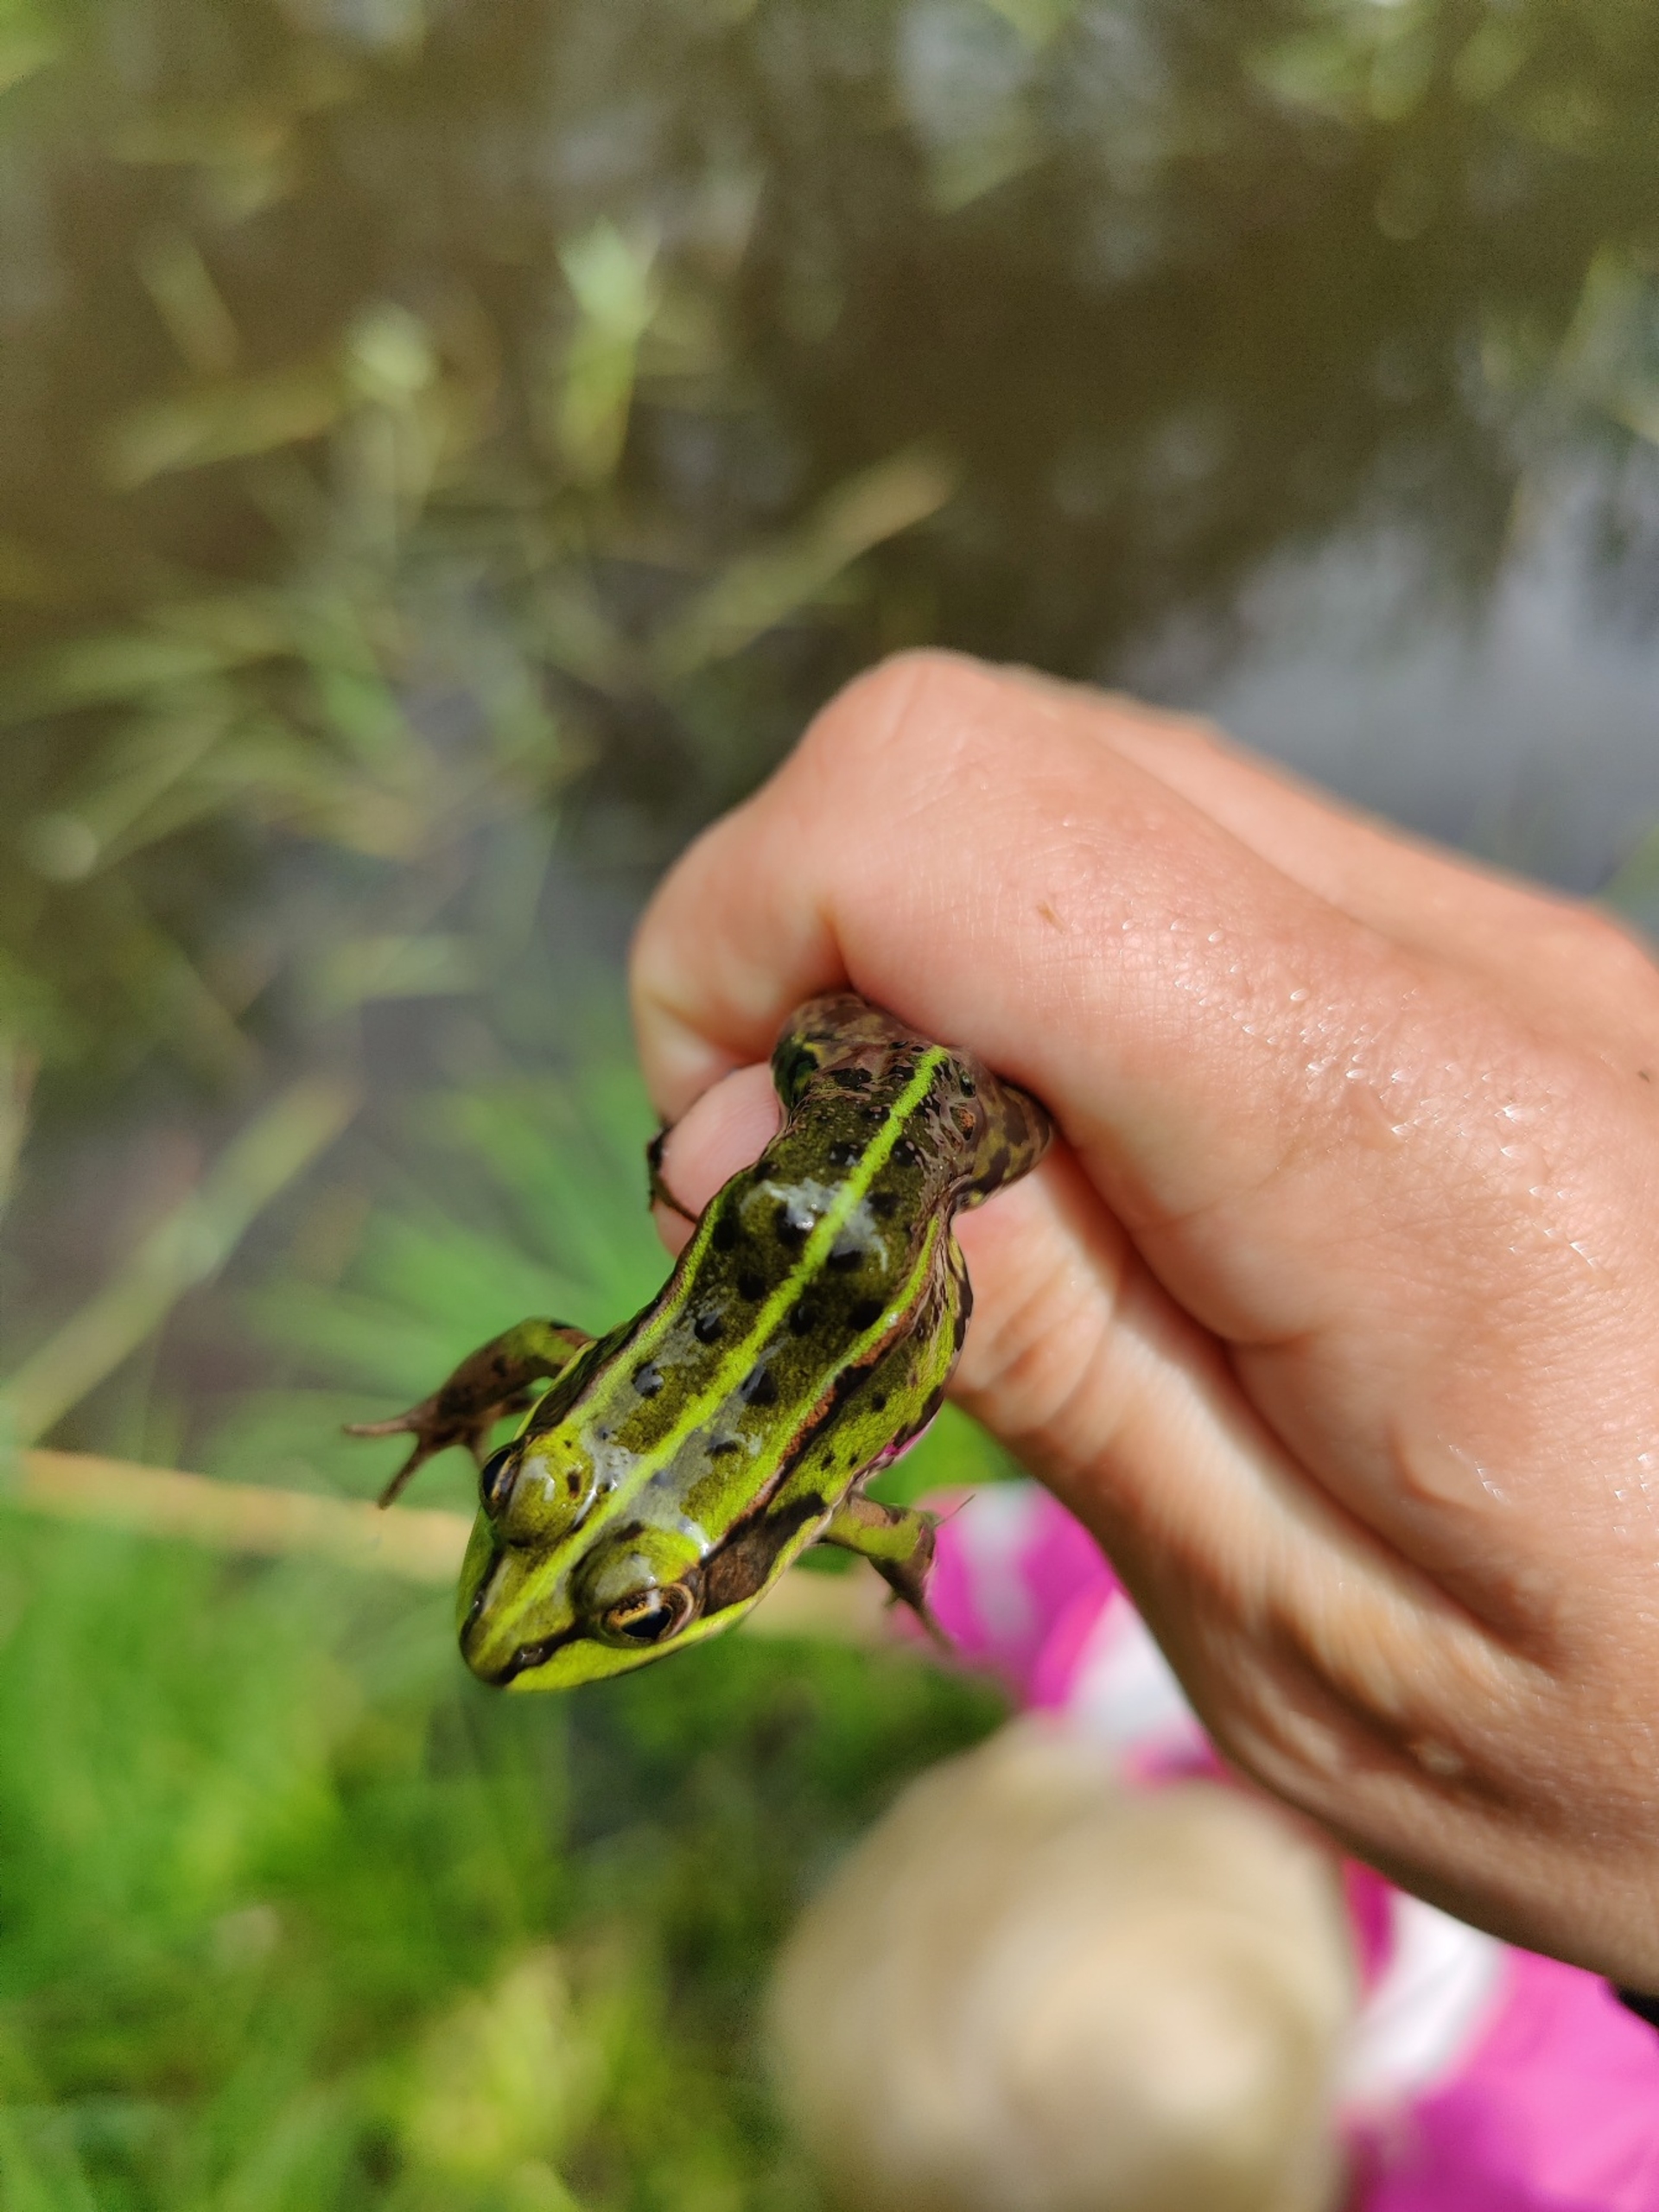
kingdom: Animalia
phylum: Chordata
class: Amphibia
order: Anura
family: Ranidae
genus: Pelophylax
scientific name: Pelophylax lessonae
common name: Grøn frø
